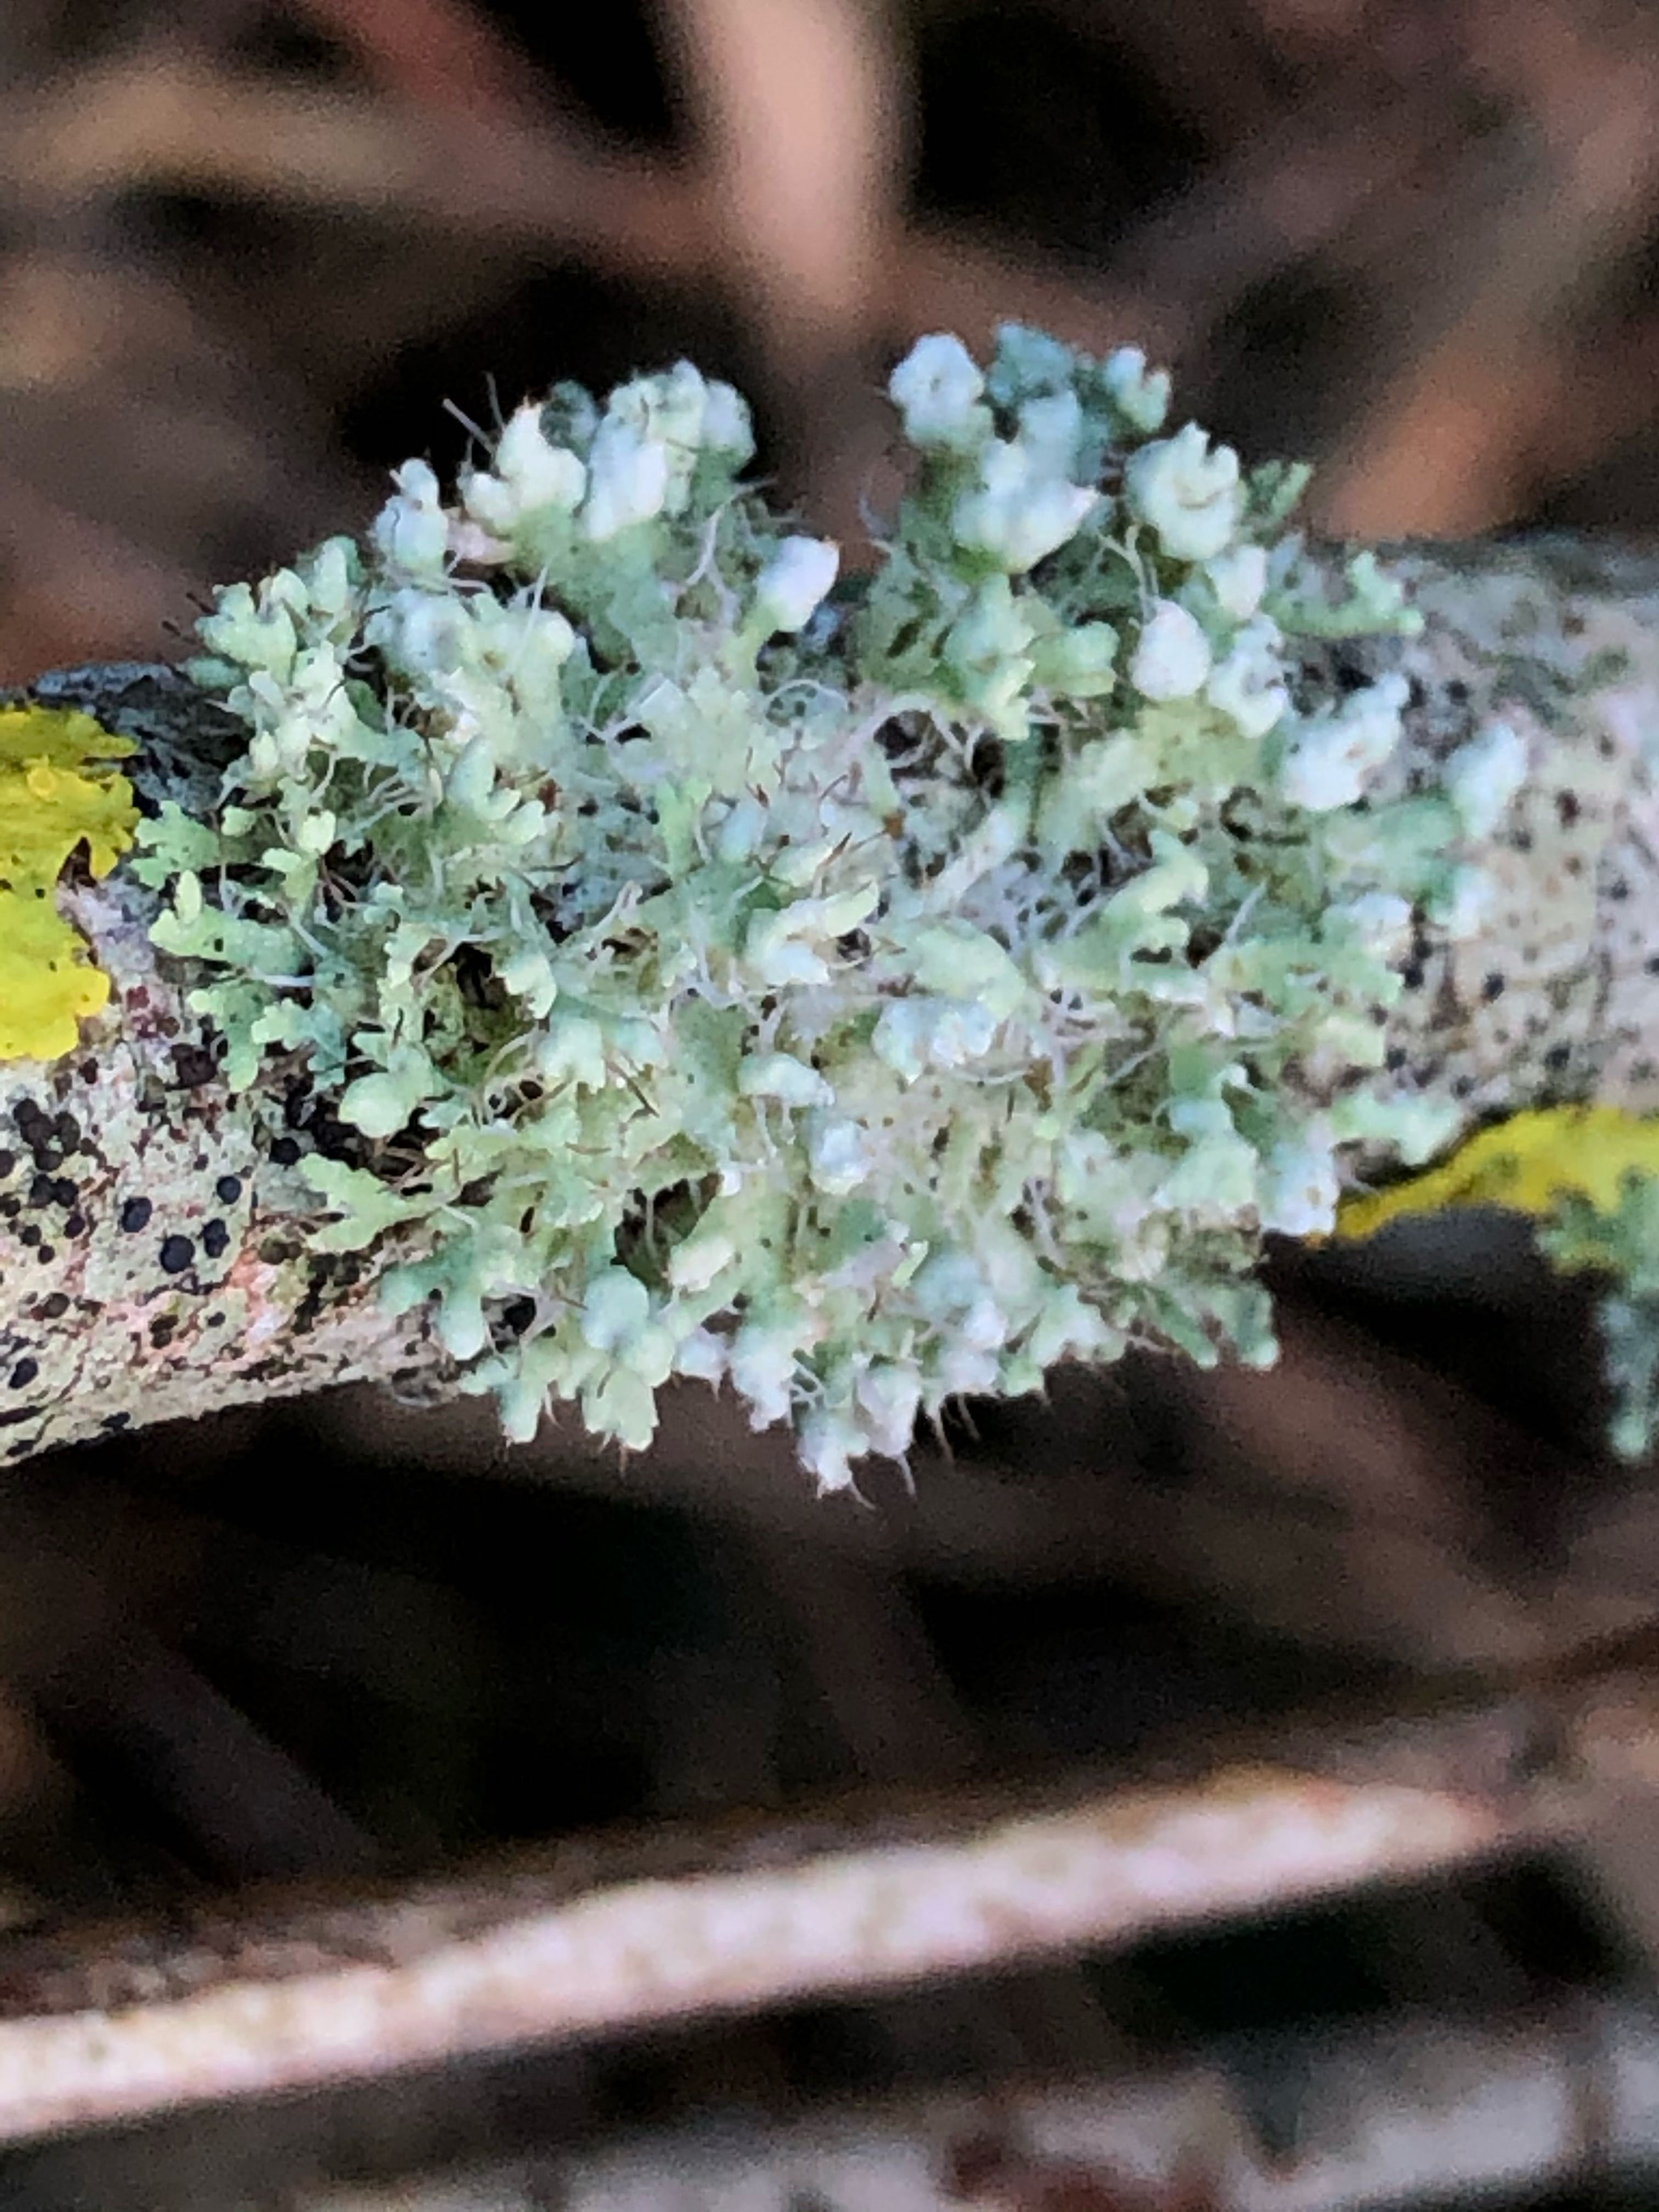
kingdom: Fungi
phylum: Ascomycota
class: Lecanoromycetes
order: Caliciales
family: Physciaceae
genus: Physcia
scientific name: Physcia adscendens
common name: hætte-rosetlav
